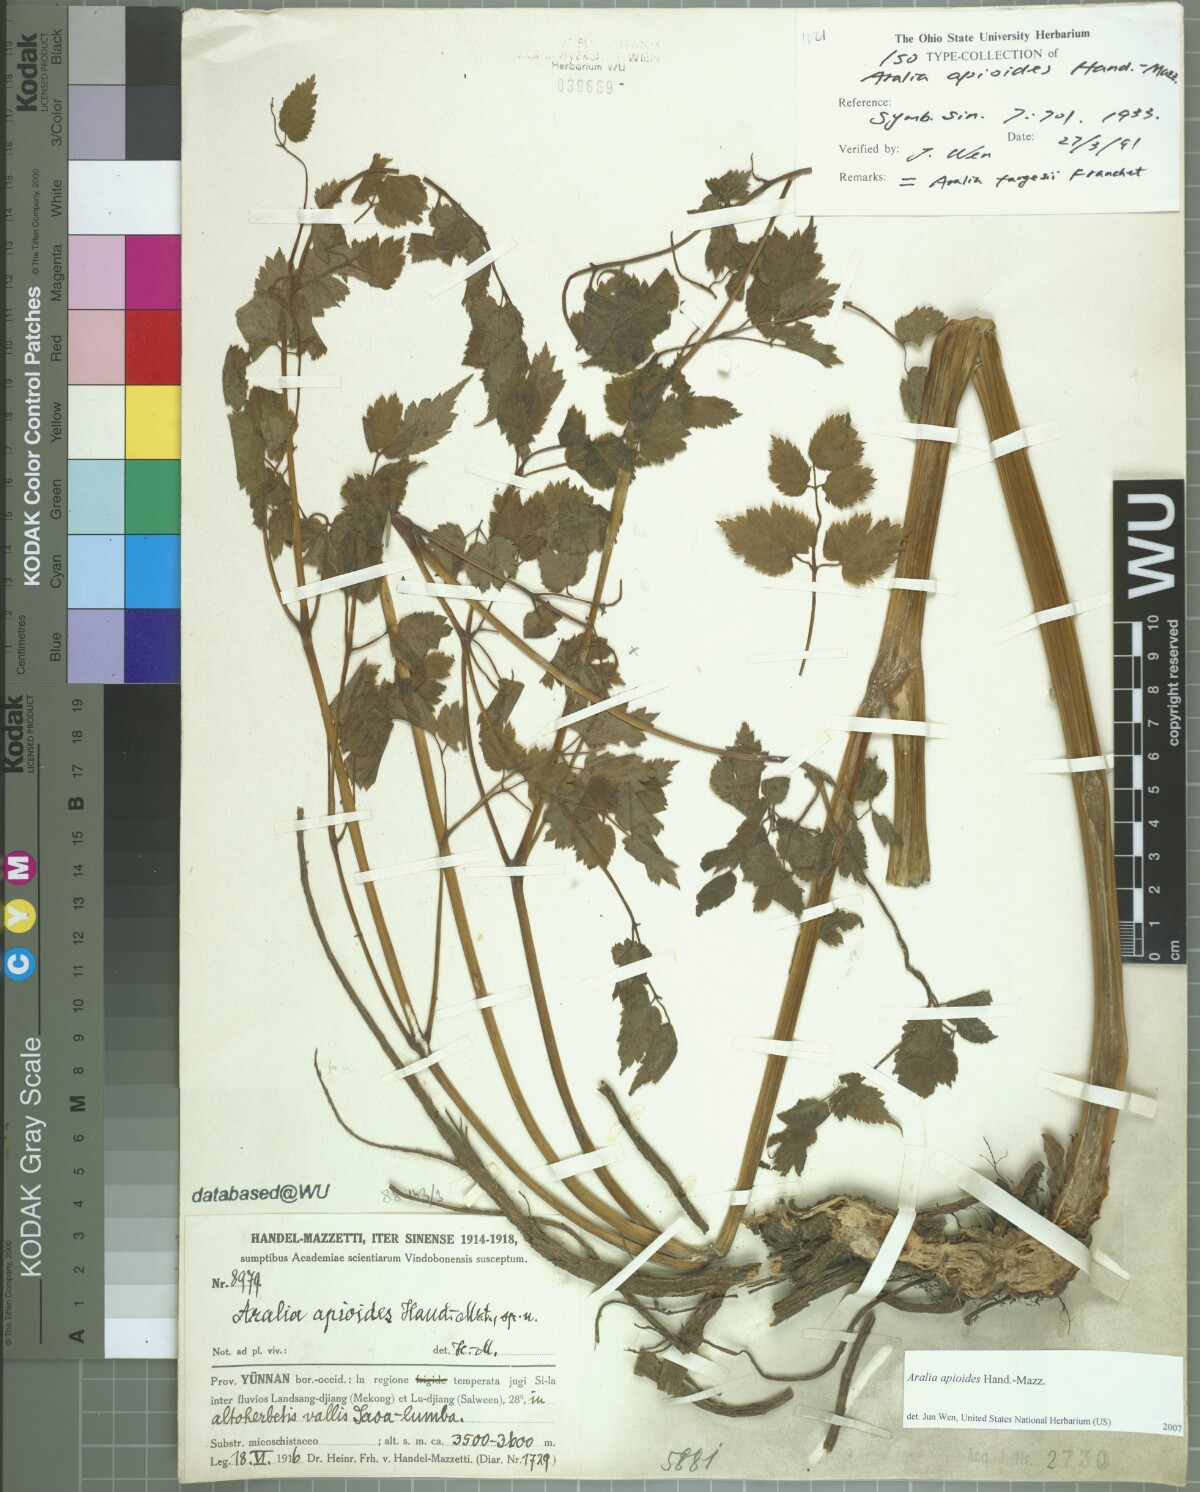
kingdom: Plantae
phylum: Tracheophyta
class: Magnoliopsida
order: Apiales
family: Araliaceae
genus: Aralia
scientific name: Aralia apioides
